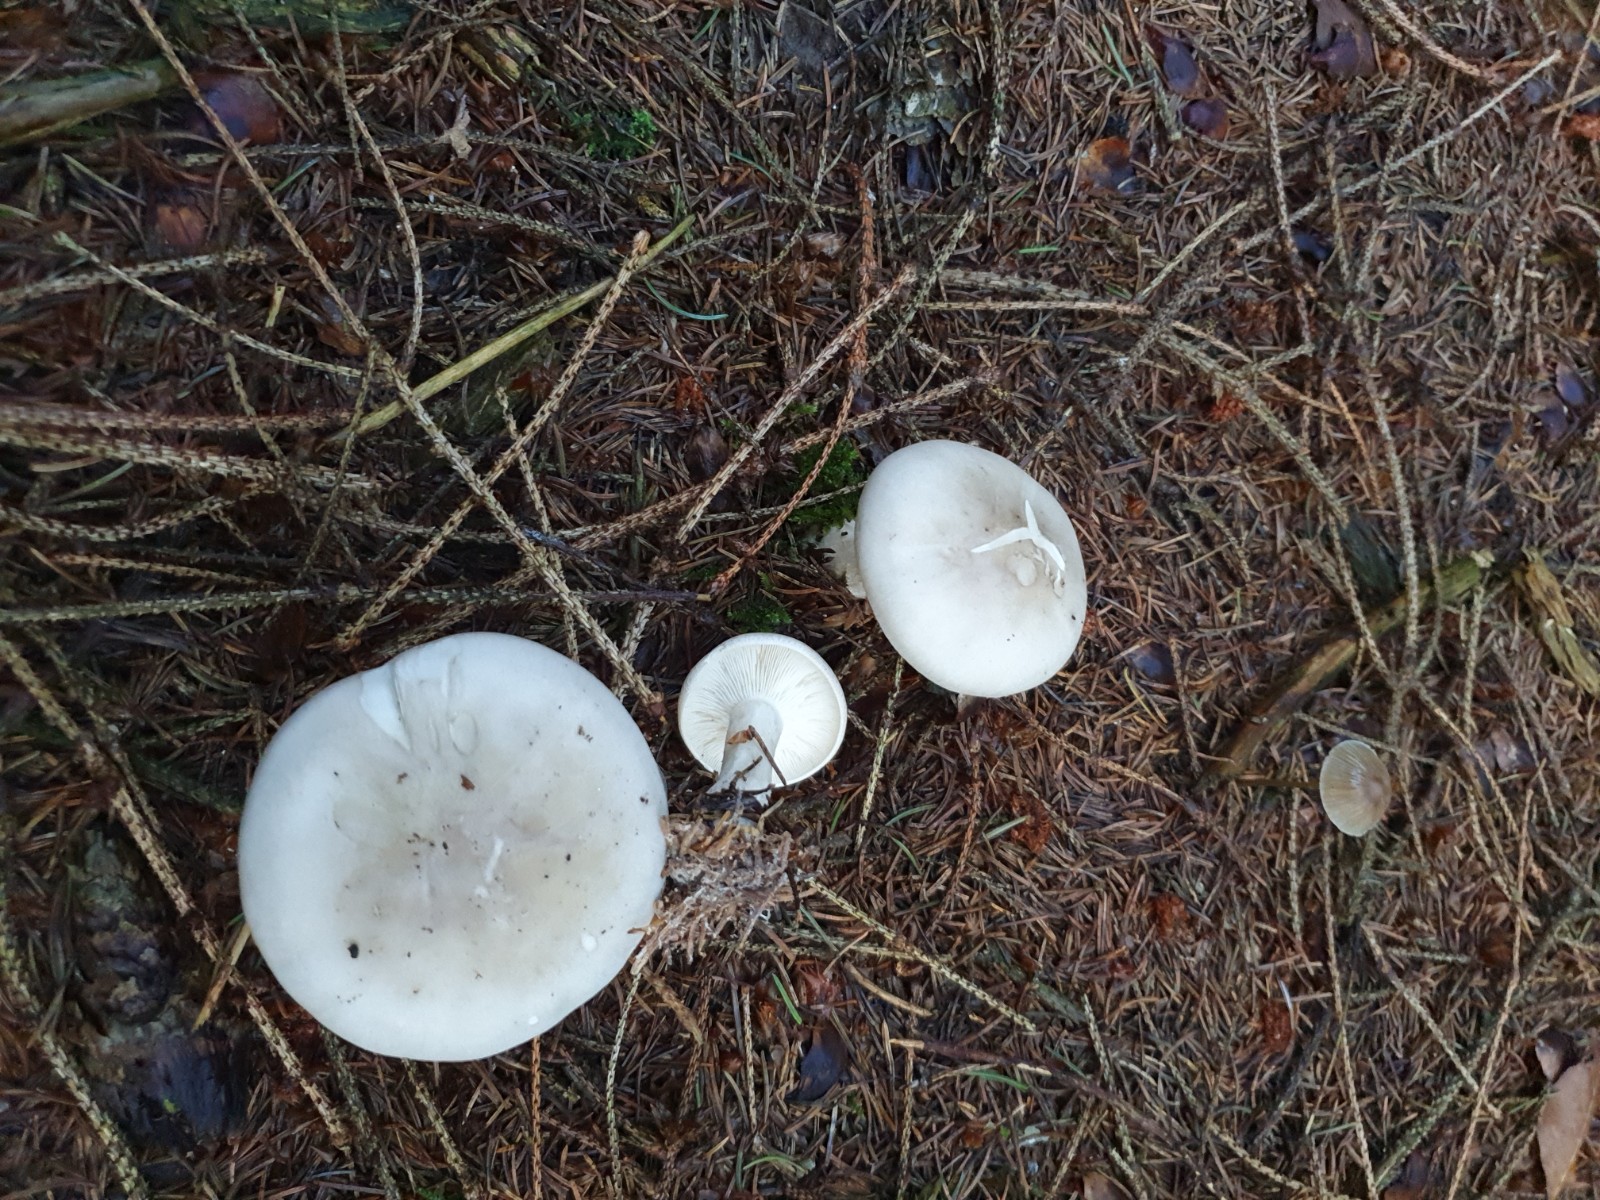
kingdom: Fungi
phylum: Basidiomycota
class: Agaricomycetes
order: Agaricales
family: Tricholomataceae
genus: Clitocybe
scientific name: Clitocybe nebularis
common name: tåge-tragthat
